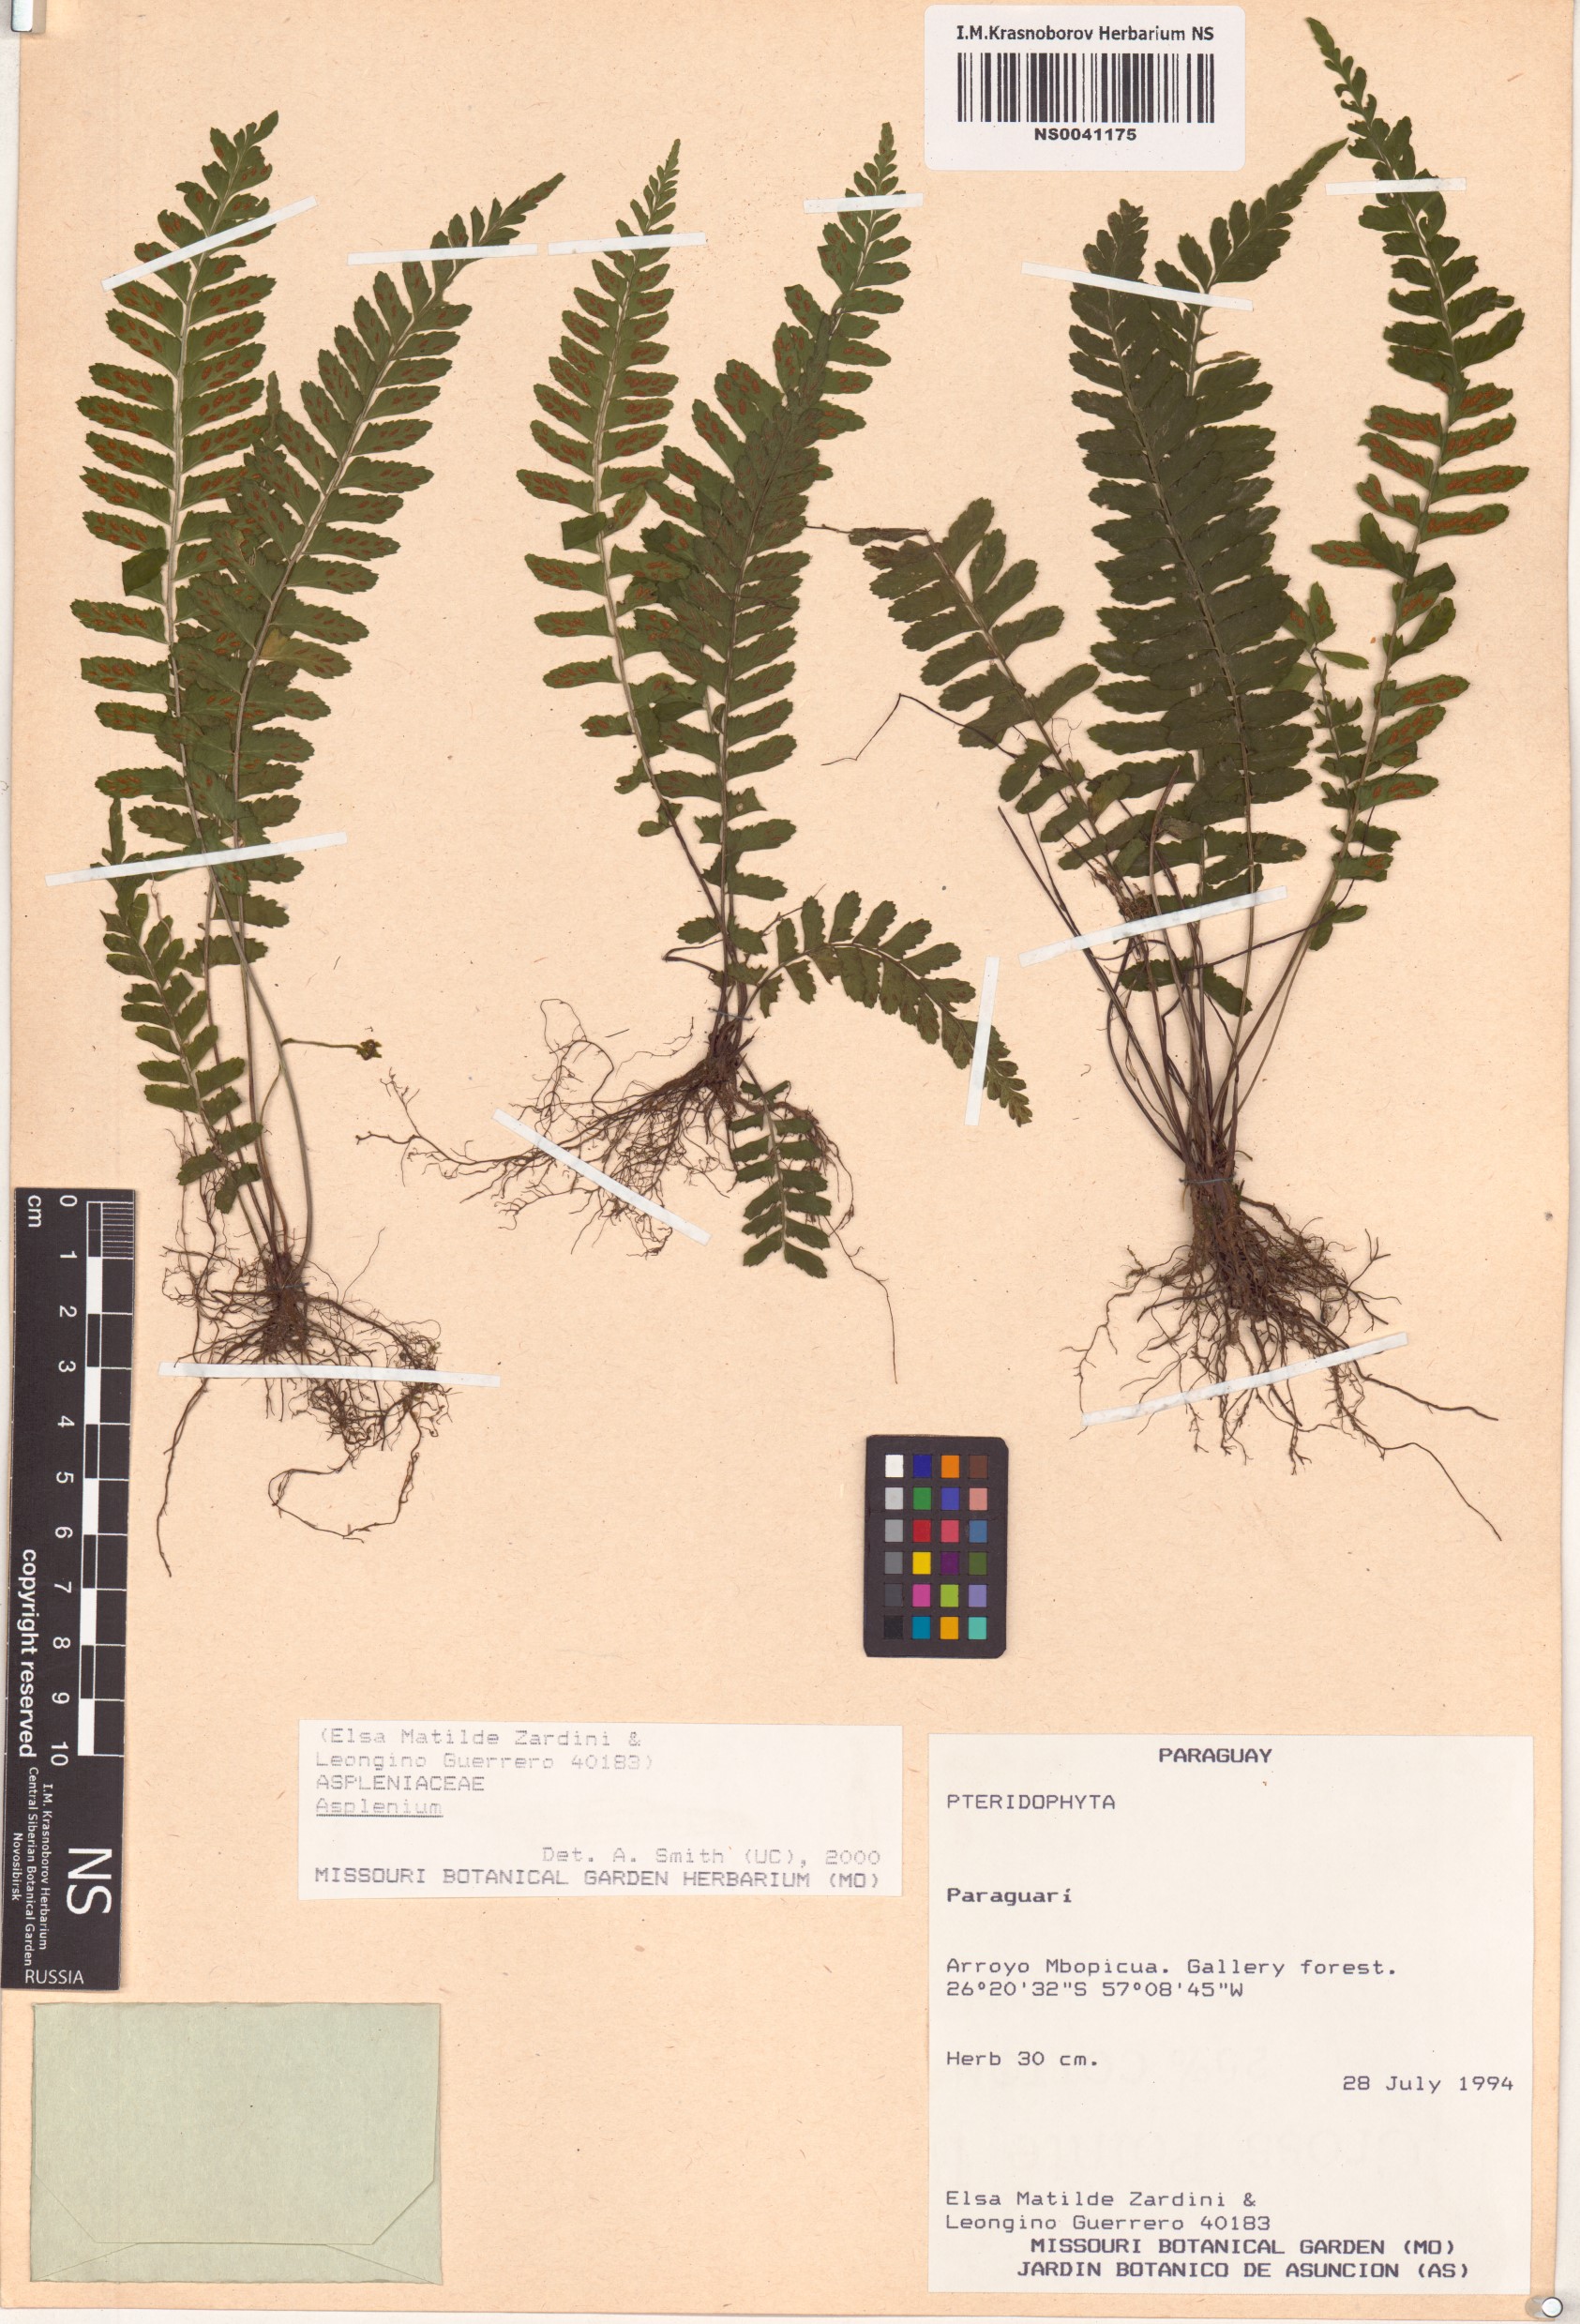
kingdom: Plantae
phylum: Tracheophyta
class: Polypodiopsida
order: Polypodiales
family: Aspleniaceae
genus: Asplenium
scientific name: Asplenium
